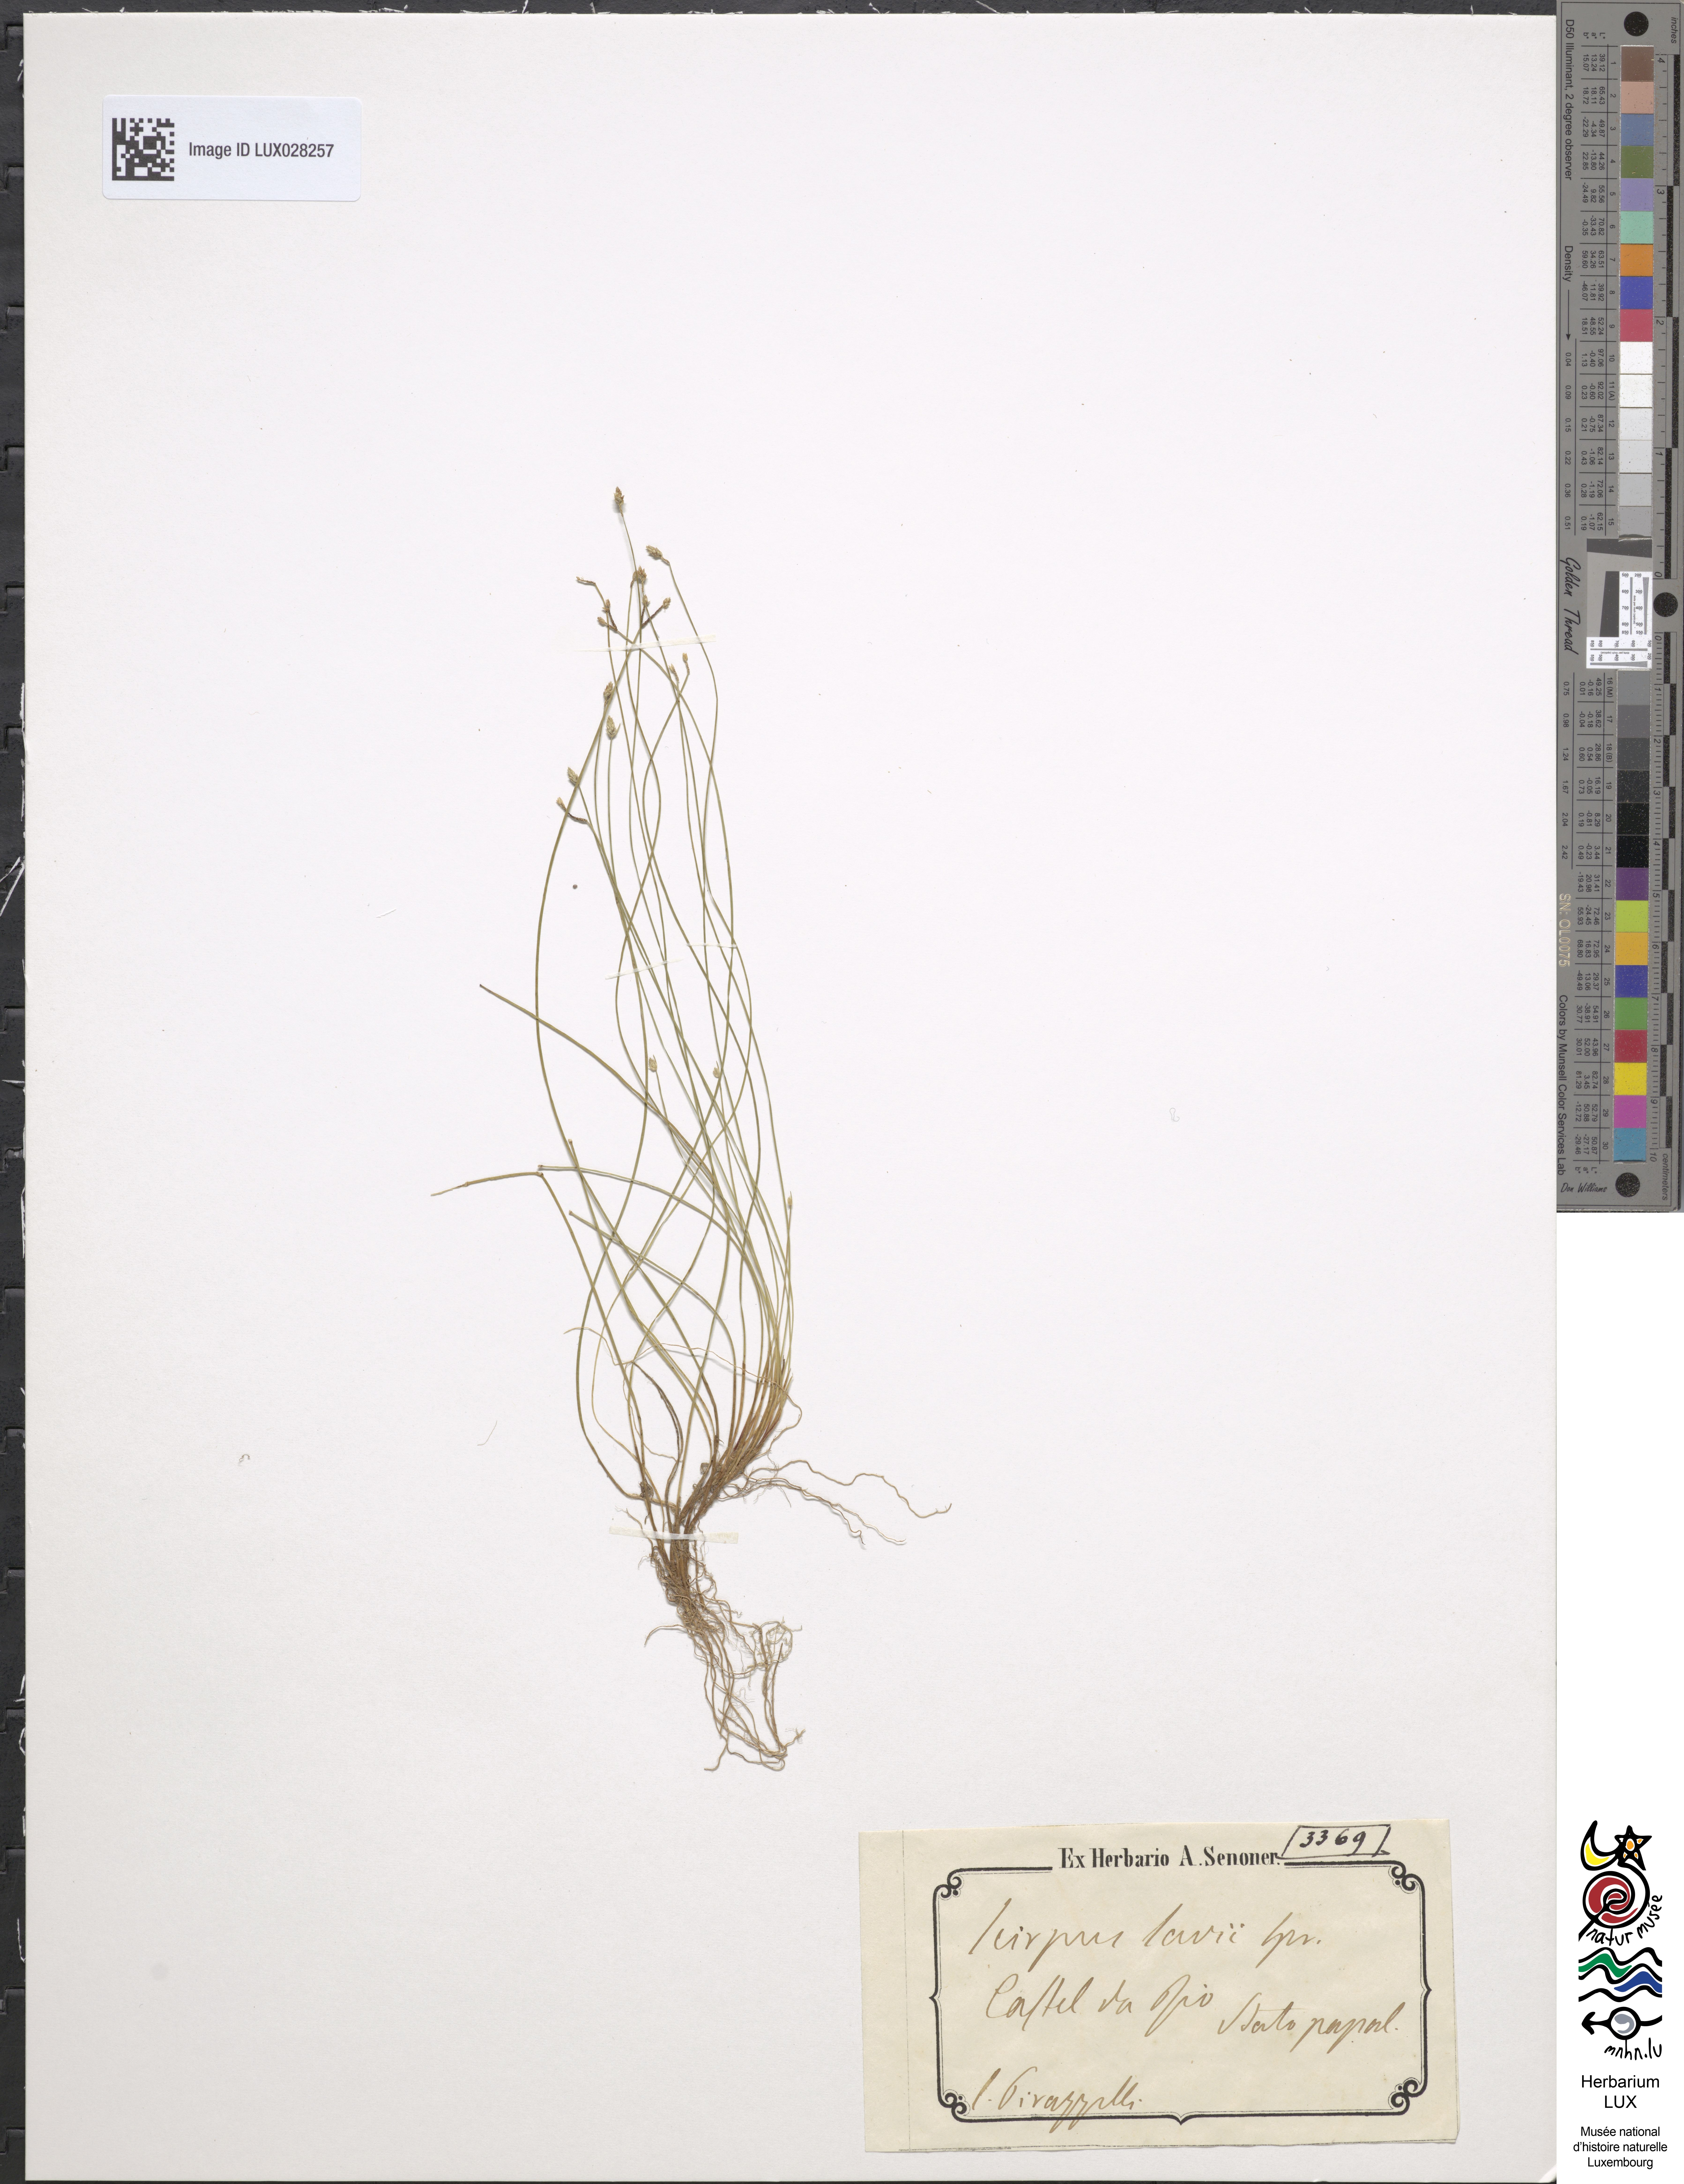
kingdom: Plantae
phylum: Tracheophyta
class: Liliopsida
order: Poales
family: Cyperaceae
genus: Scirpus
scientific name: Scirpus
